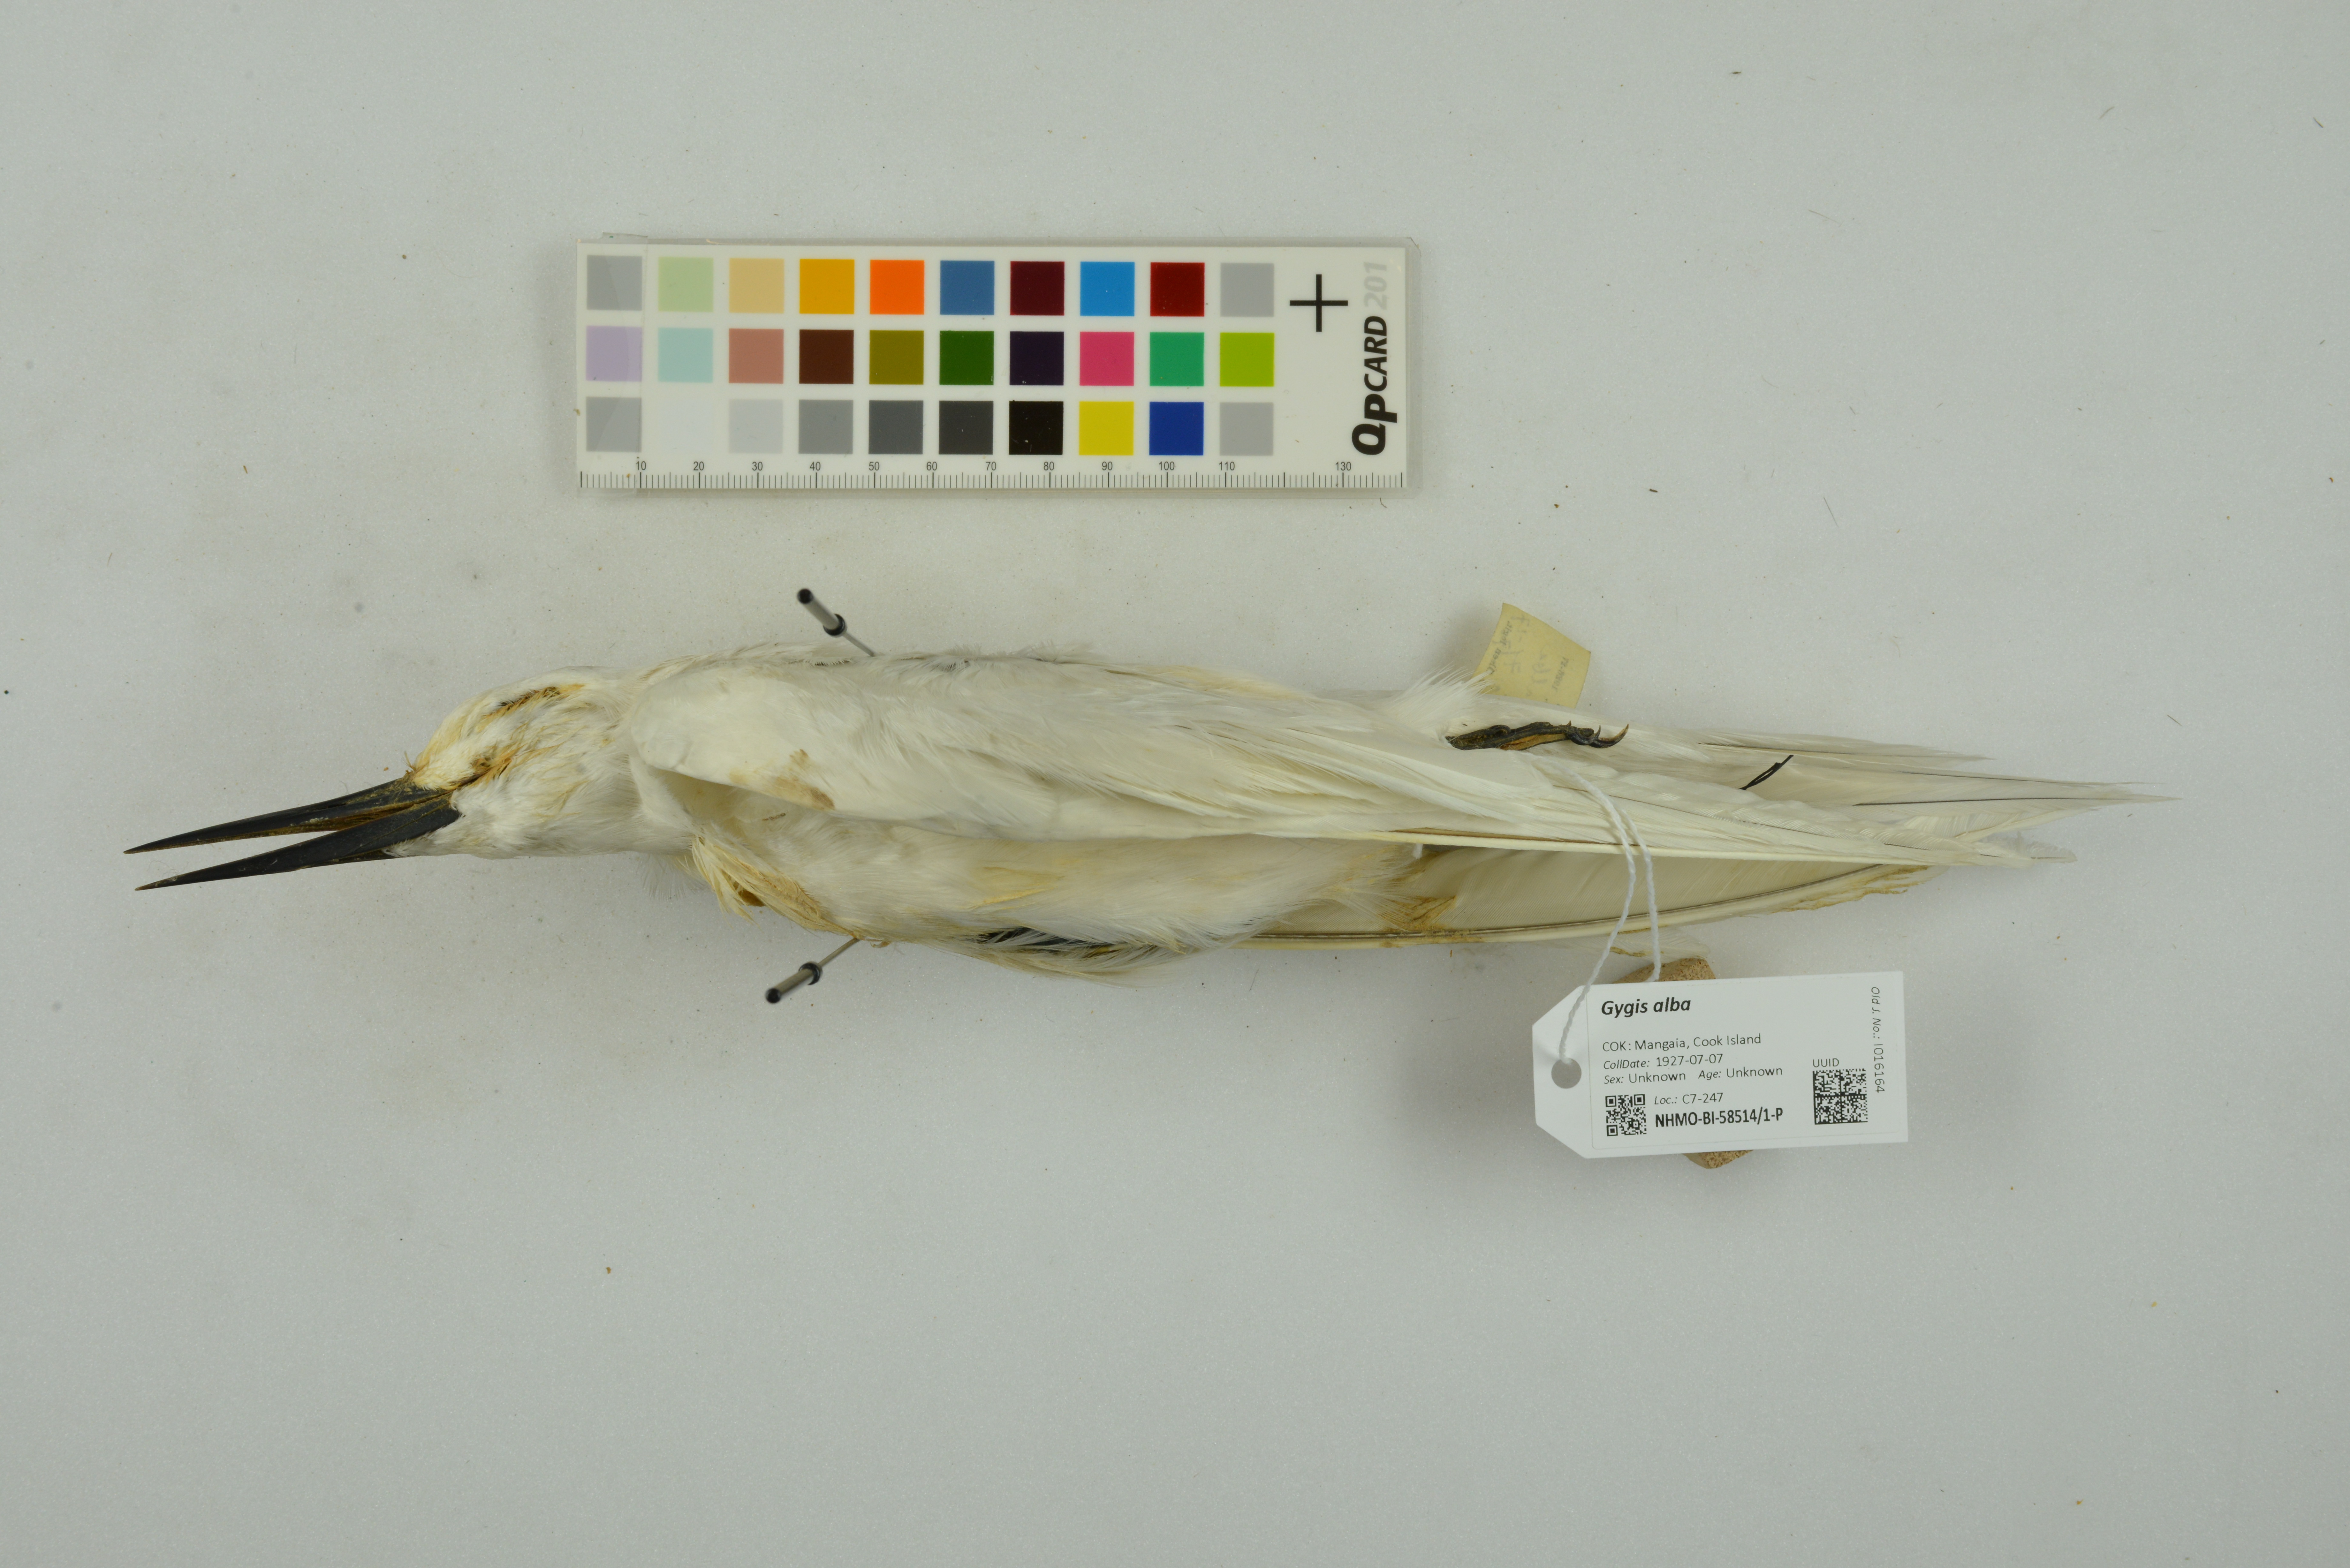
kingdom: Animalia
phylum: Chordata
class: Aves
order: Charadriiformes
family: Laridae
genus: Gygis
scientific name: Gygis alba
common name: White tern
